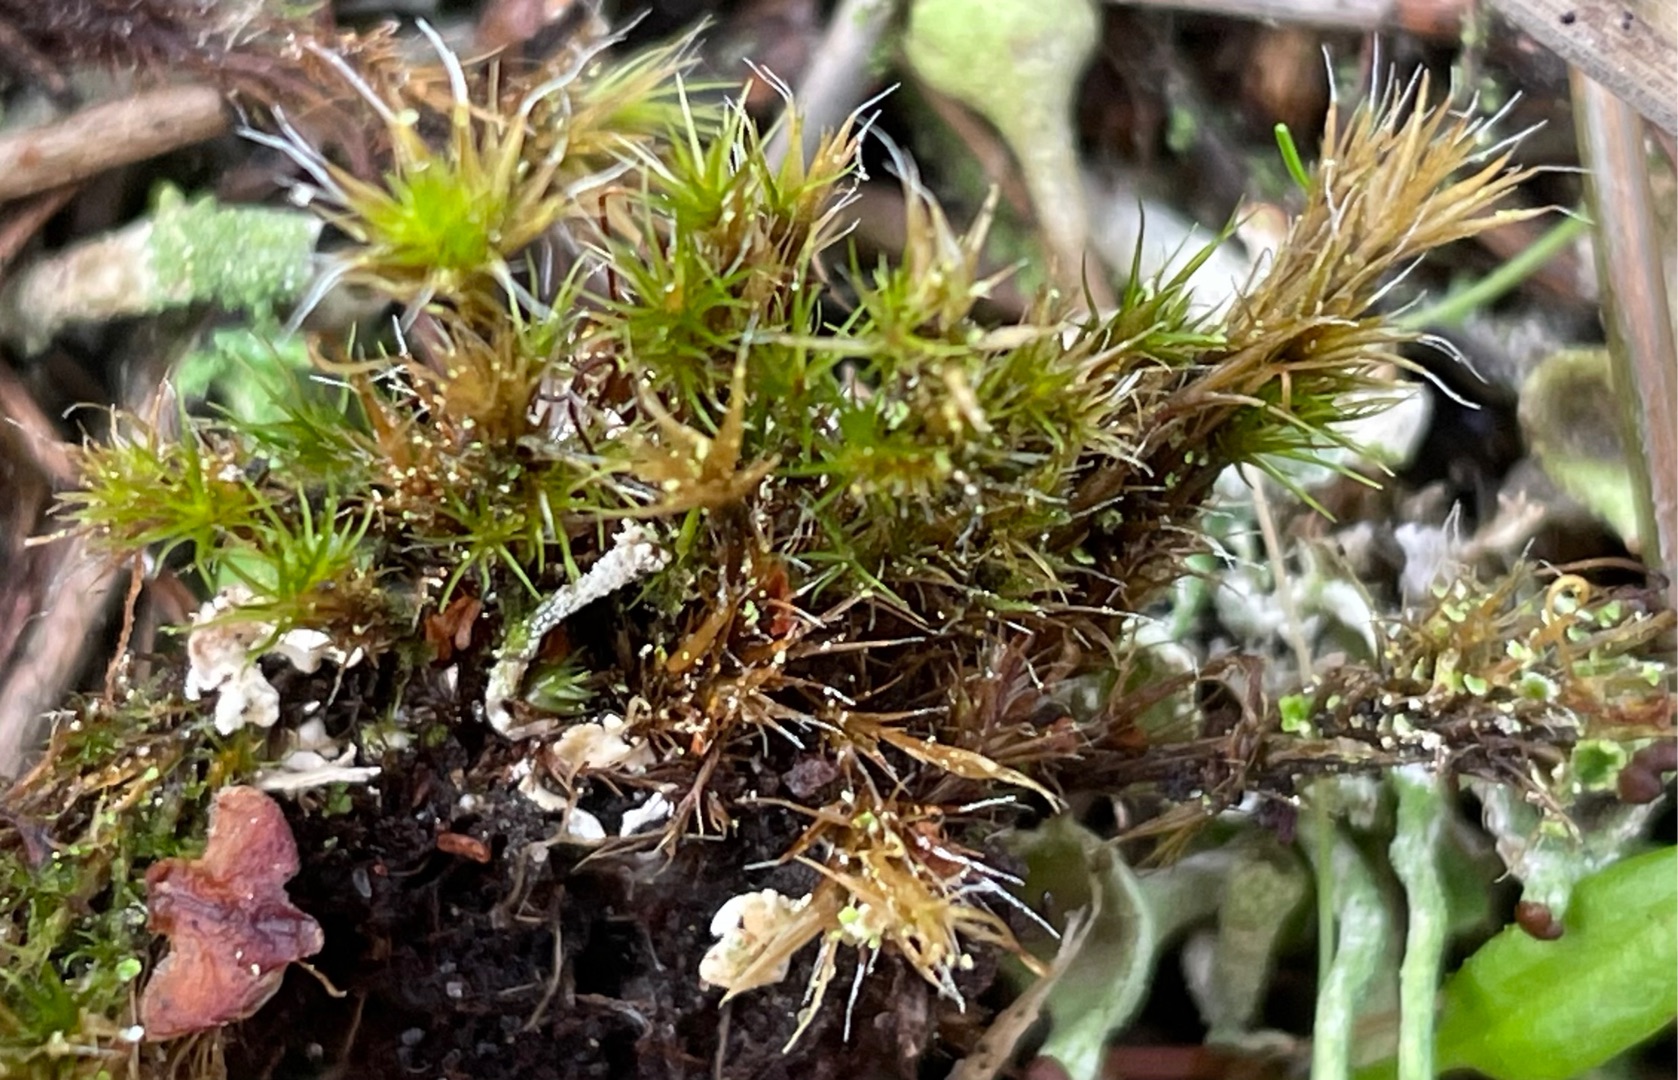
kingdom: Plantae
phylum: Bryophyta
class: Bryopsida
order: Dicranales
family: Leucobryaceae
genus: Campylopus
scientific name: Campylopus introflexus
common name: Stjerne-bredribbe
